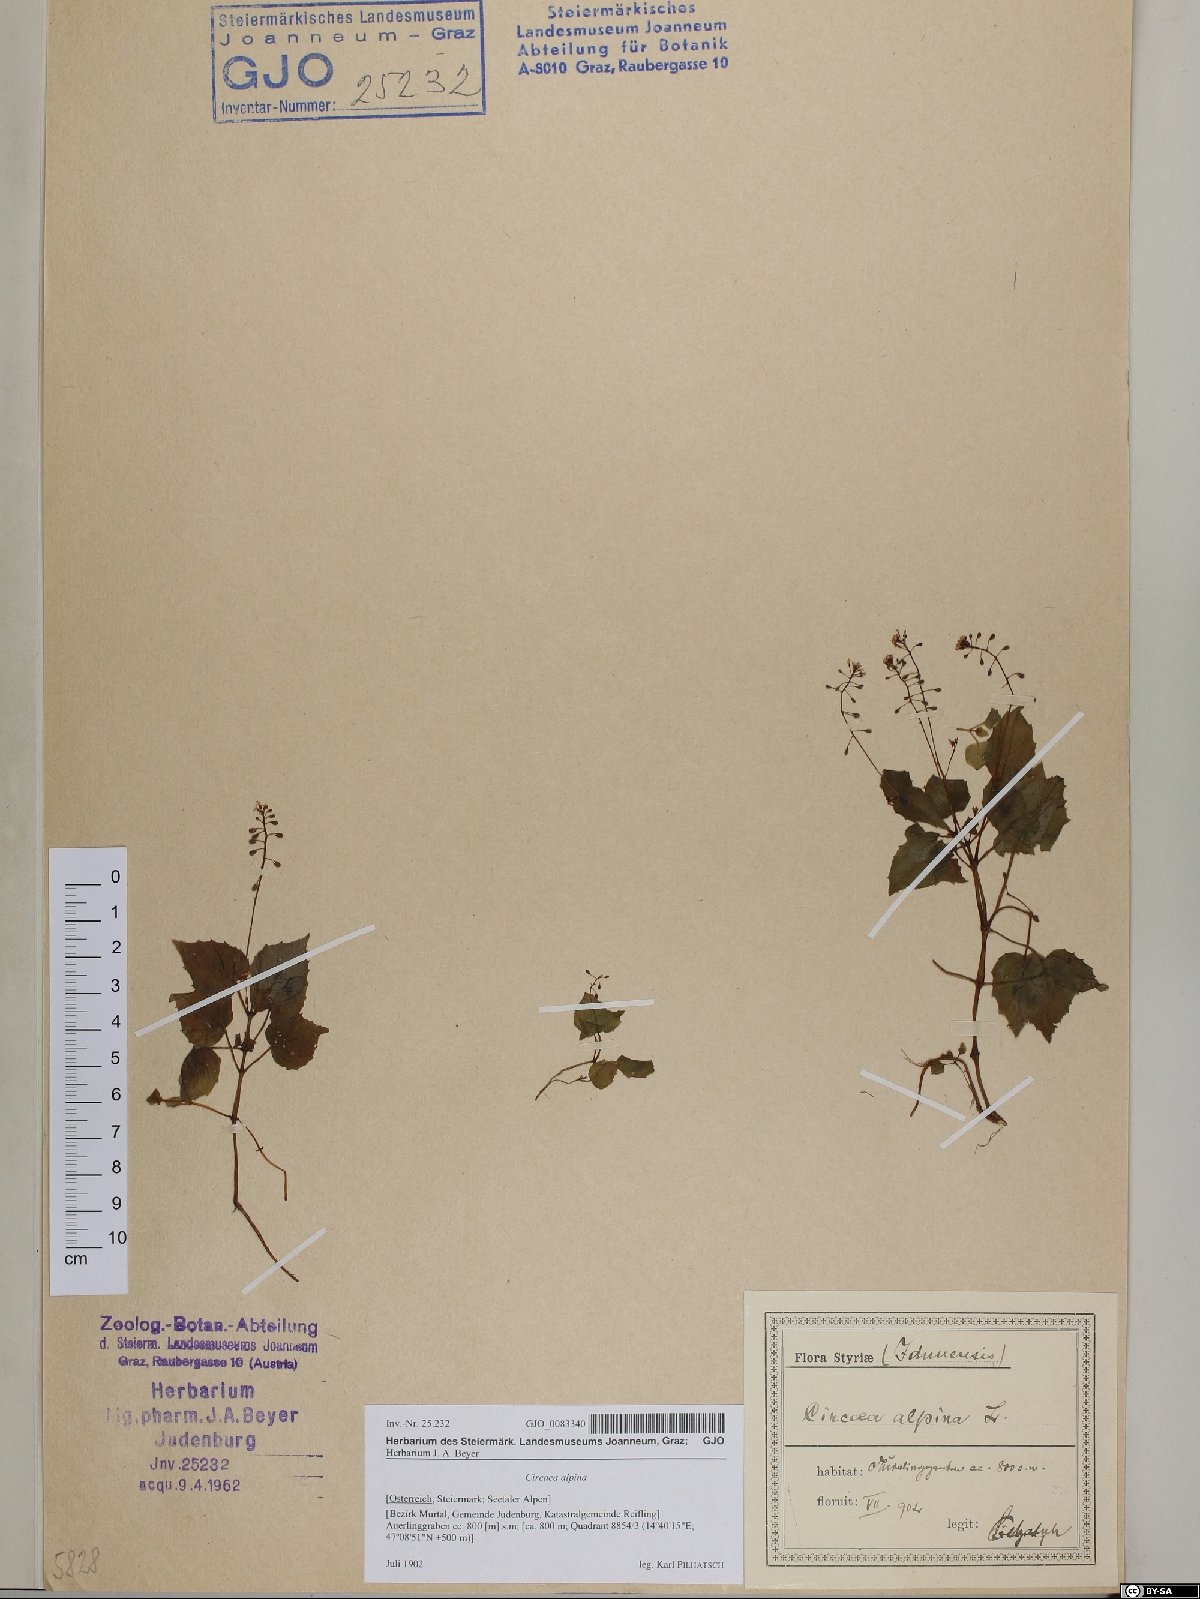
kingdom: Plantae
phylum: Tracheophyta
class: Magnoliopsida
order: Myrtales
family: Onagraceae
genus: Circaea
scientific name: Circaea alpina
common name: Alpine enchanter's-nightshade
